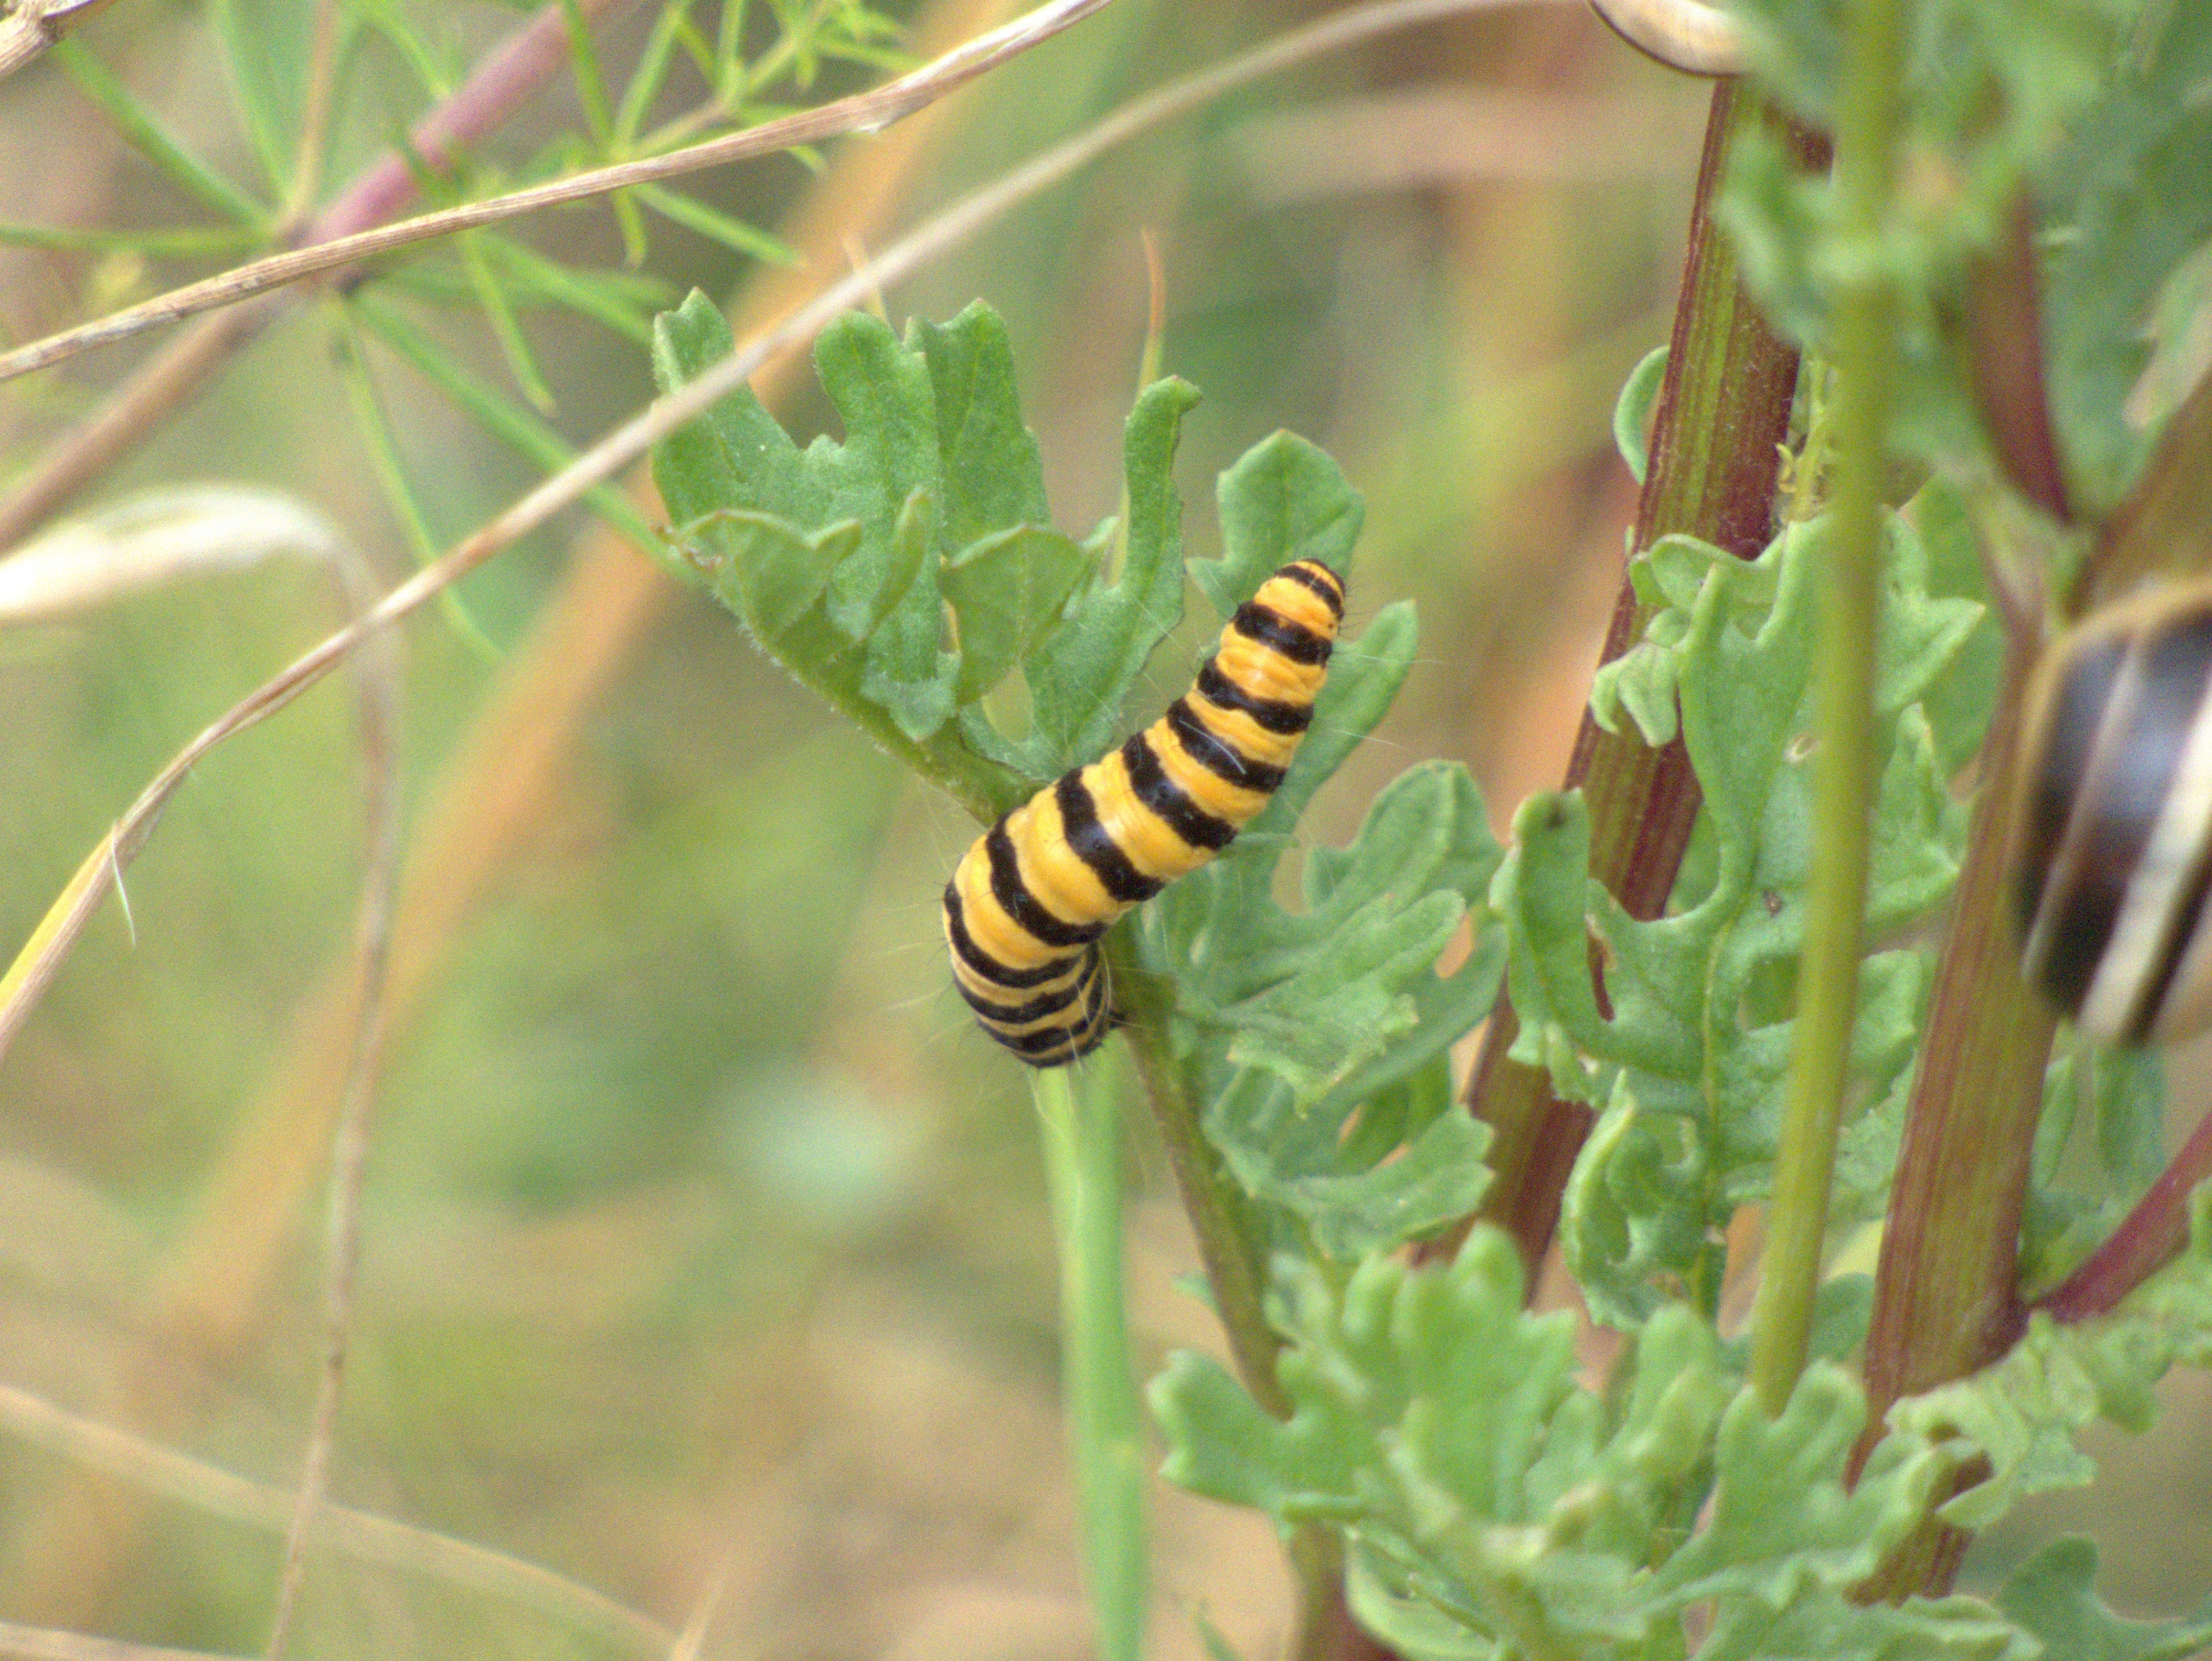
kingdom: Animalia
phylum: Arthropoda
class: Insecta
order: Lepidoptera
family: Erebidae
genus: Tyria
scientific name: Tyria jacobaeae
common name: Blodplet
